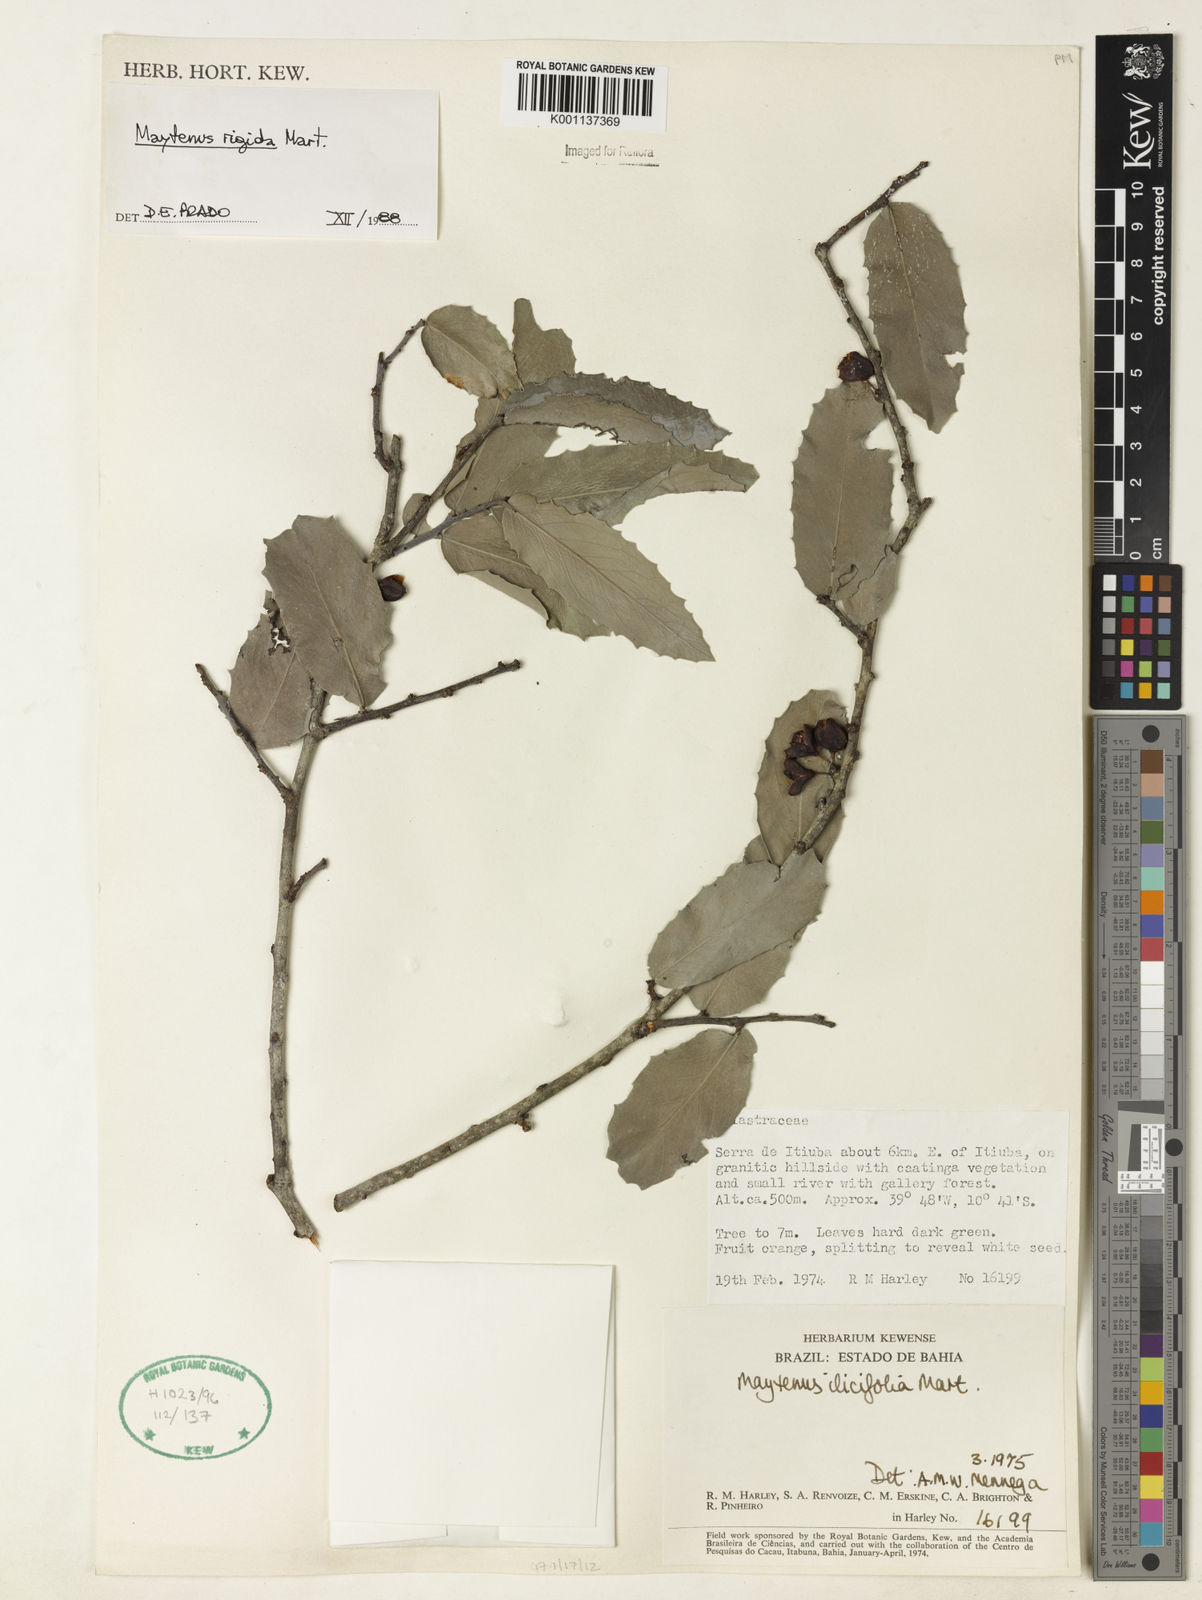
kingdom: Plantae
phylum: Tracheophyta
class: Magnoliopsida
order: Celastrales
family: Celastraceae
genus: Monteverdia
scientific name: Monteverdia rigida
